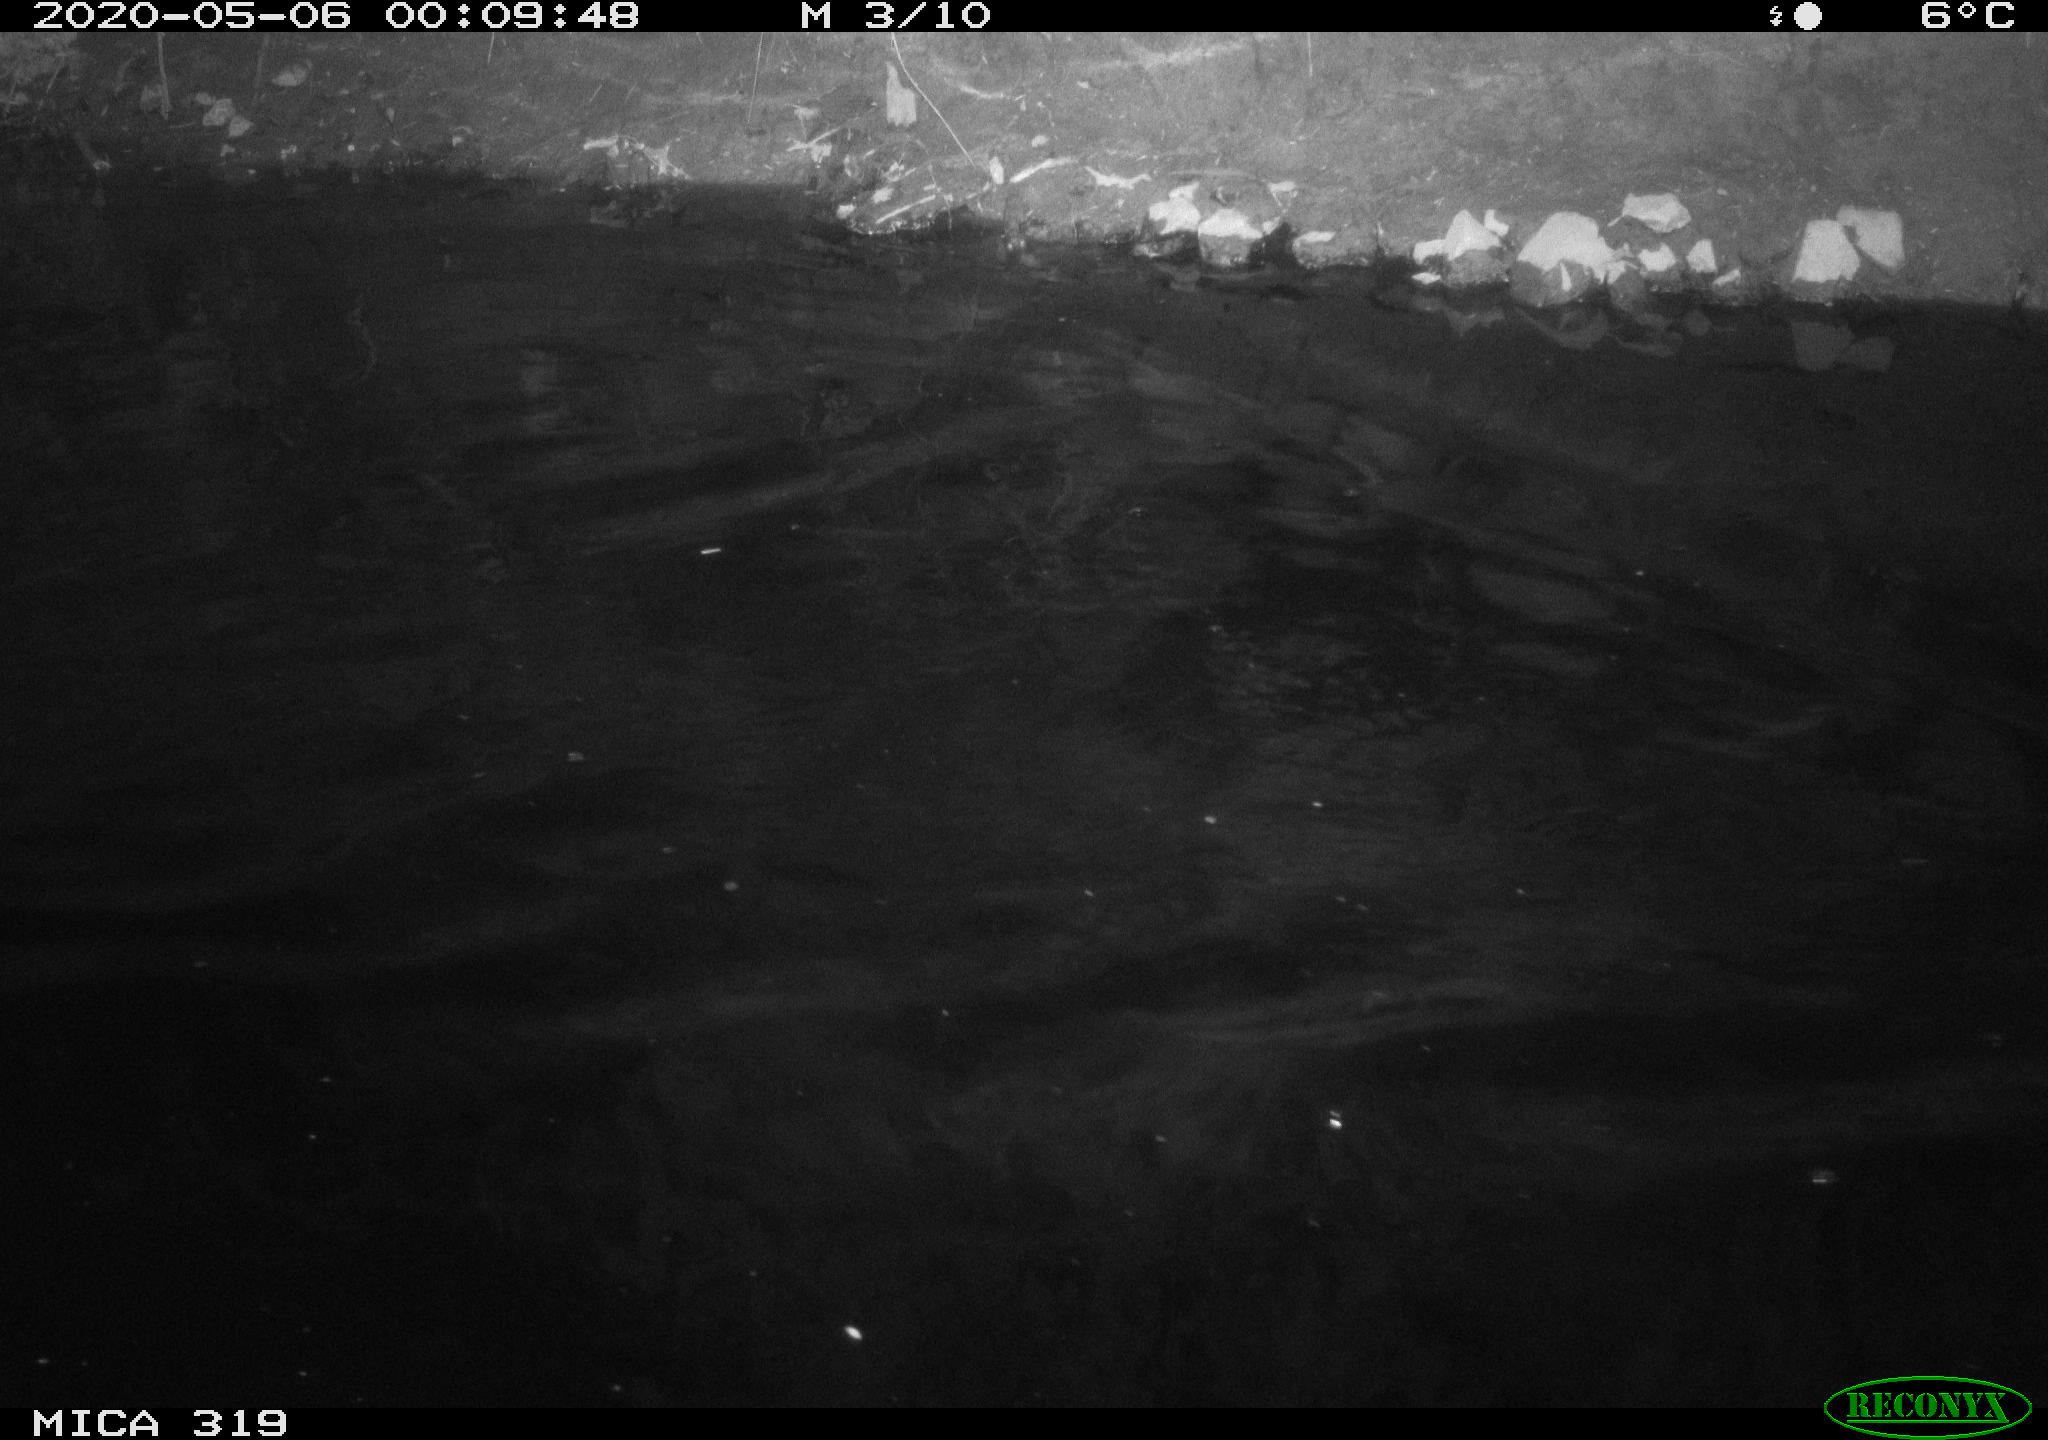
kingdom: Animalia
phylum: Chordata
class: Aves
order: Anseriformes
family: Anatidae
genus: Anas
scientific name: Anas platyrhynchos
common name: Mallard
